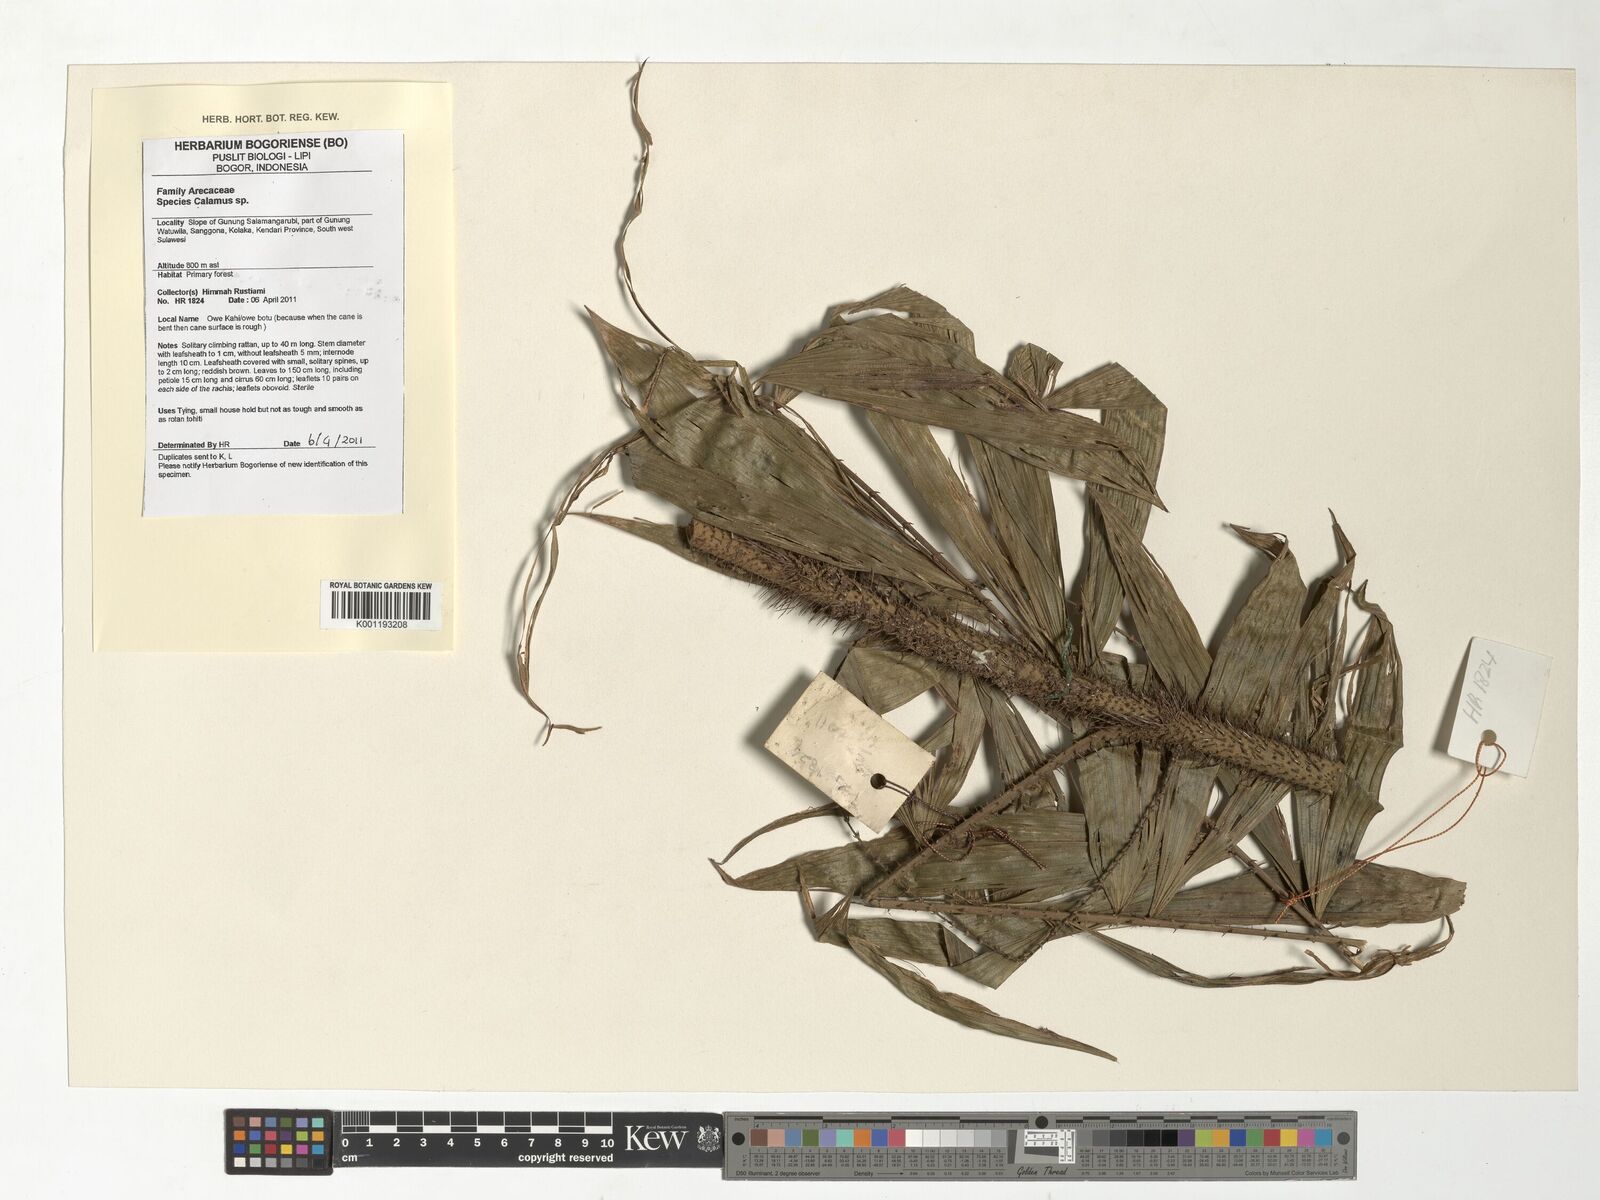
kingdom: Plantae
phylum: Tracheophyta
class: Liliopsida
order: Arecales
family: Arecaceae
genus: Calamus
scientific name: Calamus
